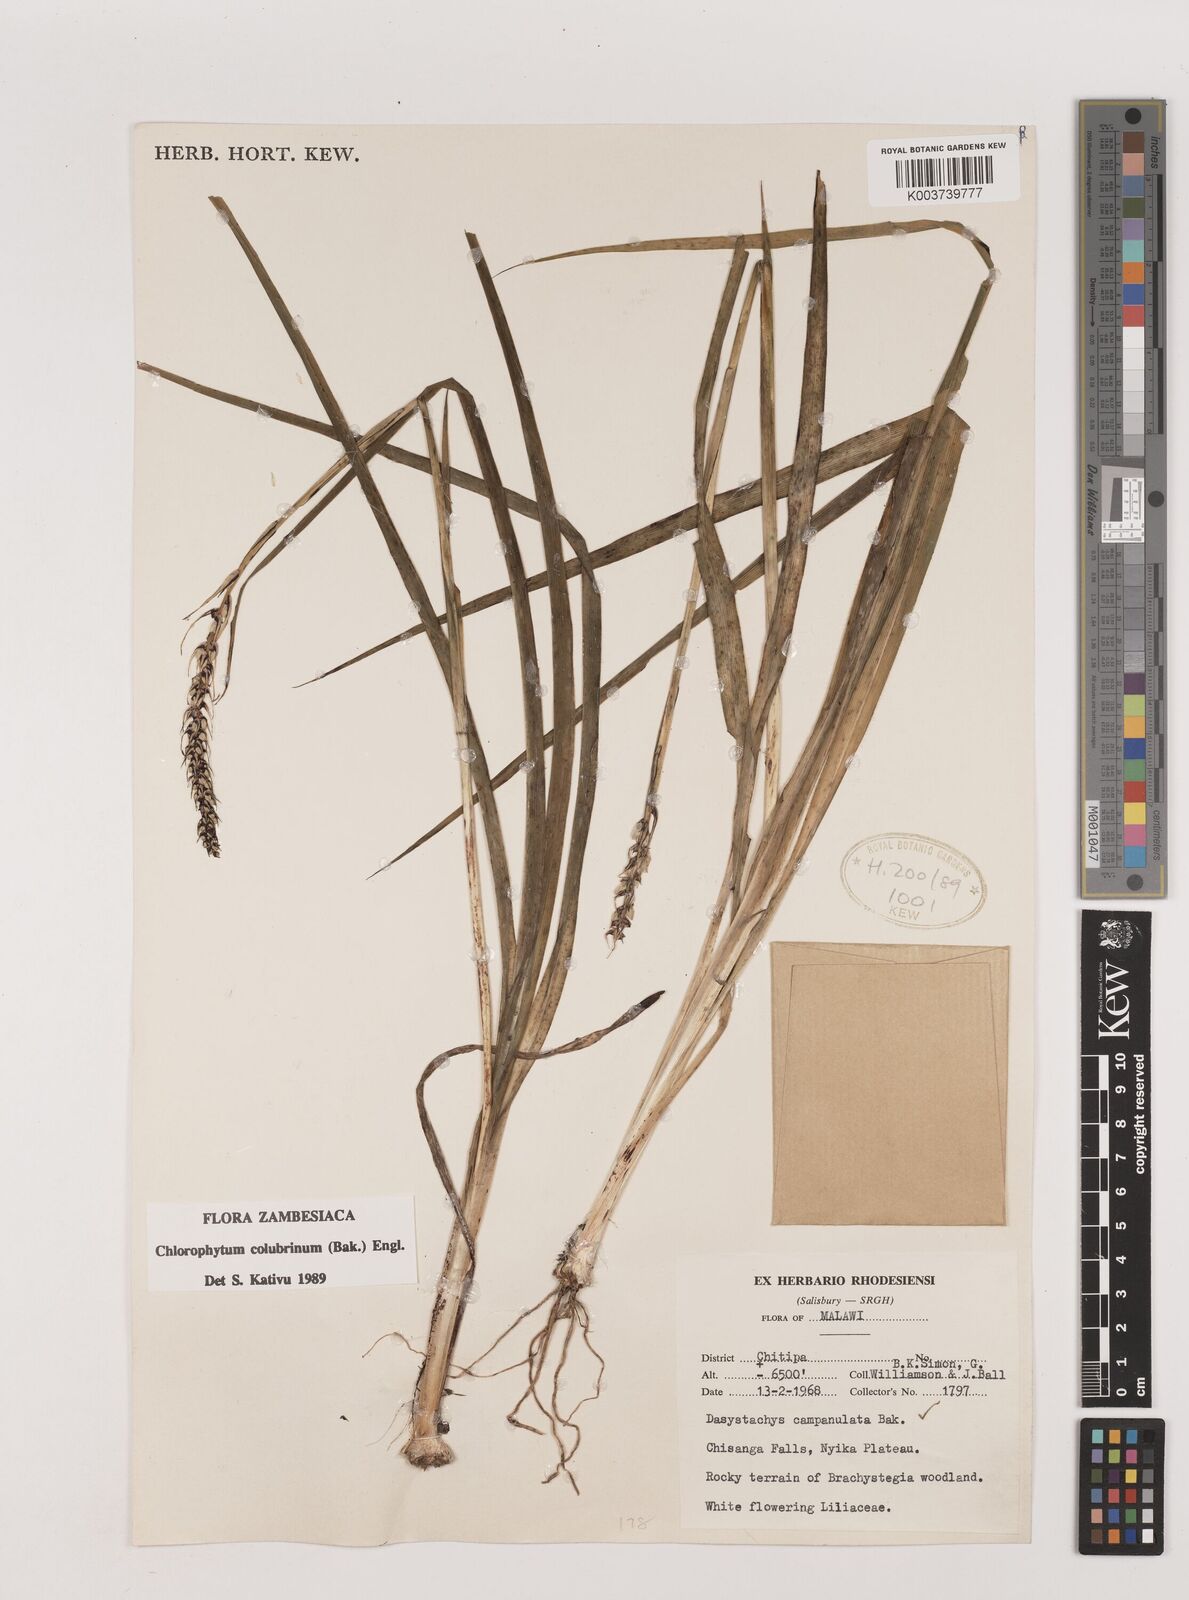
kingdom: Plantae
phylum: Tracheophyta
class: Liliopsida
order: Asparagales
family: Asparagaceae
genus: Chlorophytum
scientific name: Chlorophytum colubrinum
